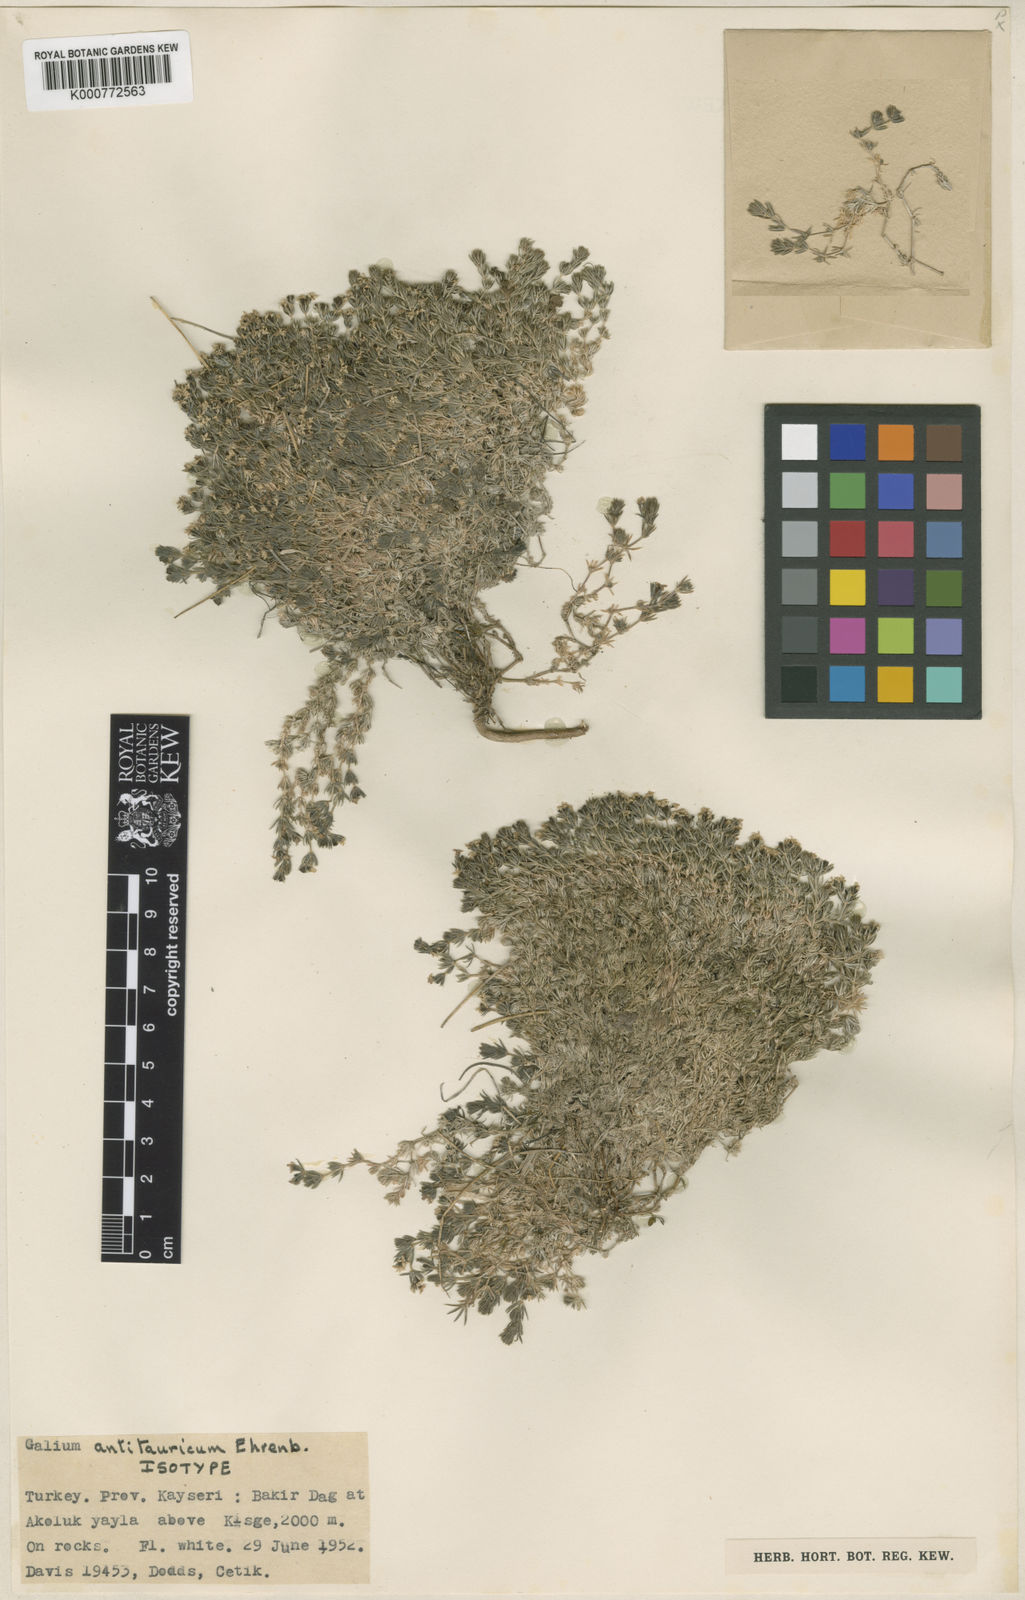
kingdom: Plantae
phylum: Tracheophyta
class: Magnoliopsida
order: Gentianales
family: Rubiaceae
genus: Galium
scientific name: Galium antitauricum
